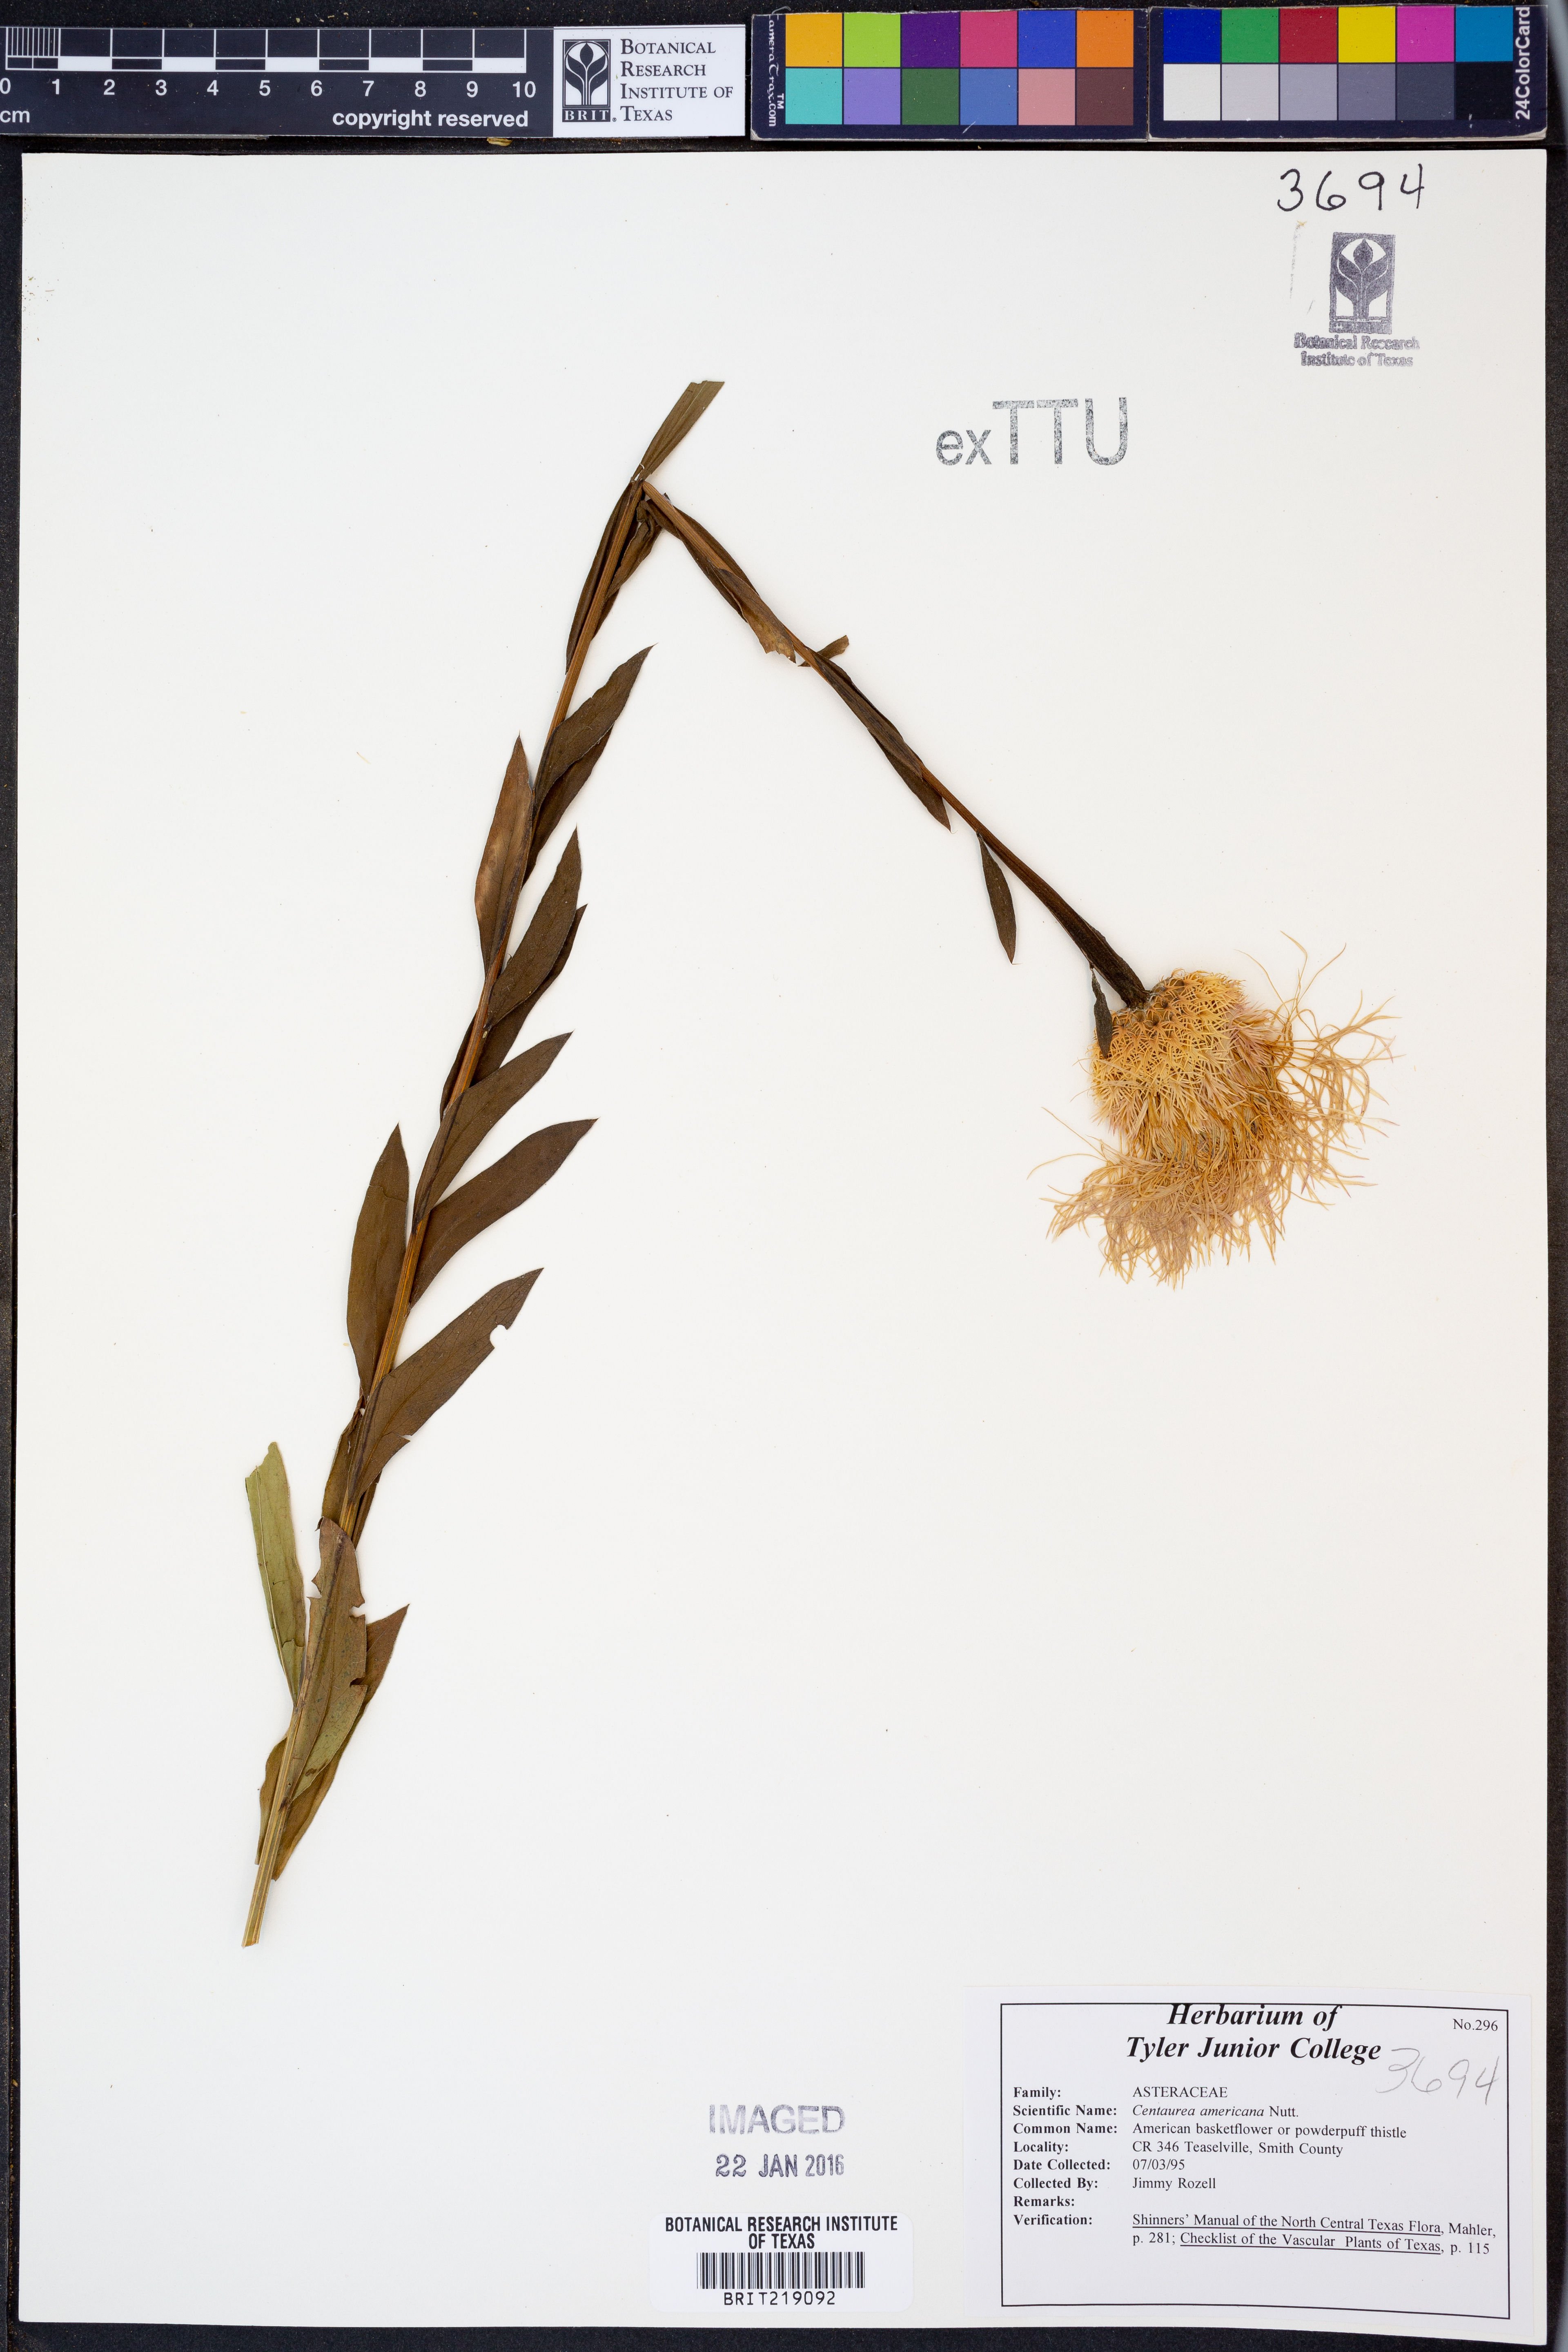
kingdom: Plantae
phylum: Tracheophyta
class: Magnoliopsida
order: Asterales
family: Asteraceae
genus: Plectocephalus
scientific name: Plectocephalus americanus
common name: American basket-flower
